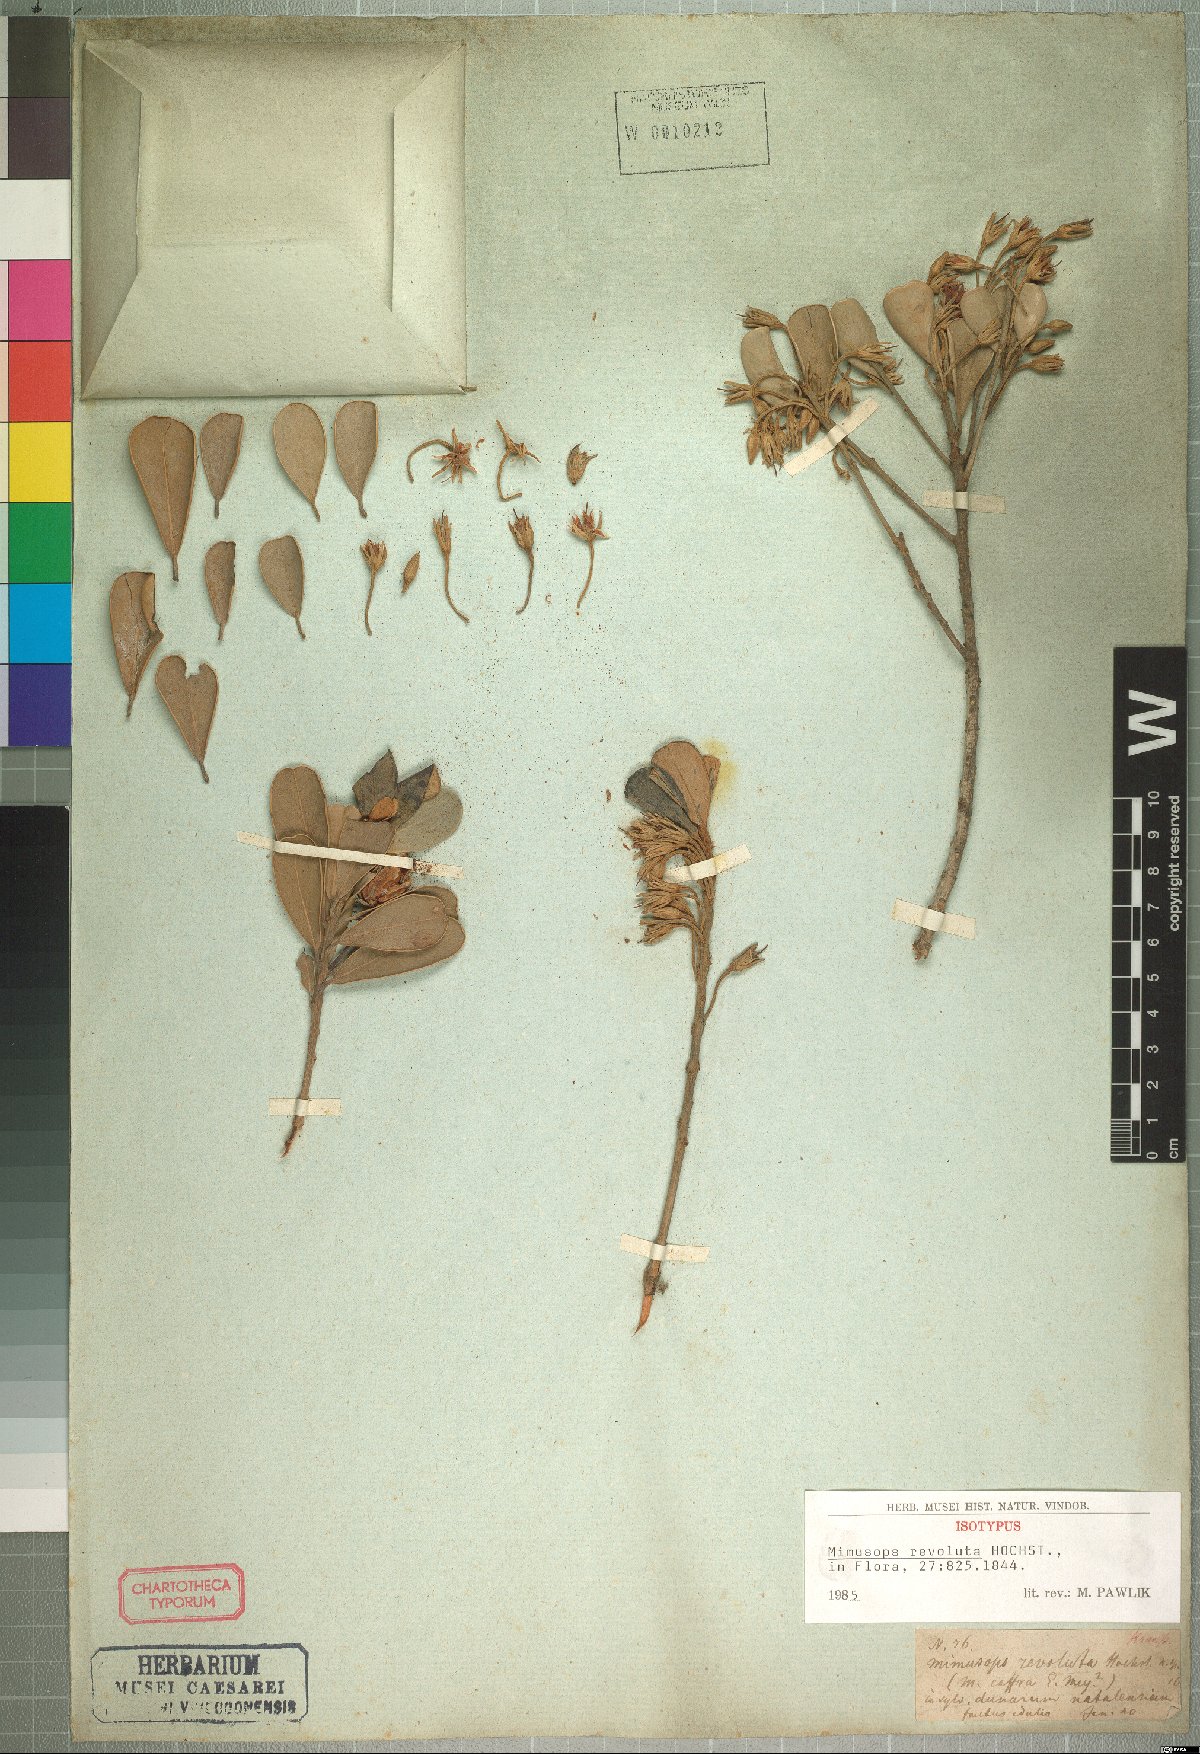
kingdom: Plantae
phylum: Tracheophyta
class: Magnoliopsida
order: Ericales
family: Sapotaceae
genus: Mimusops
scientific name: Mimusops caffra
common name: Coastal red milkwood
